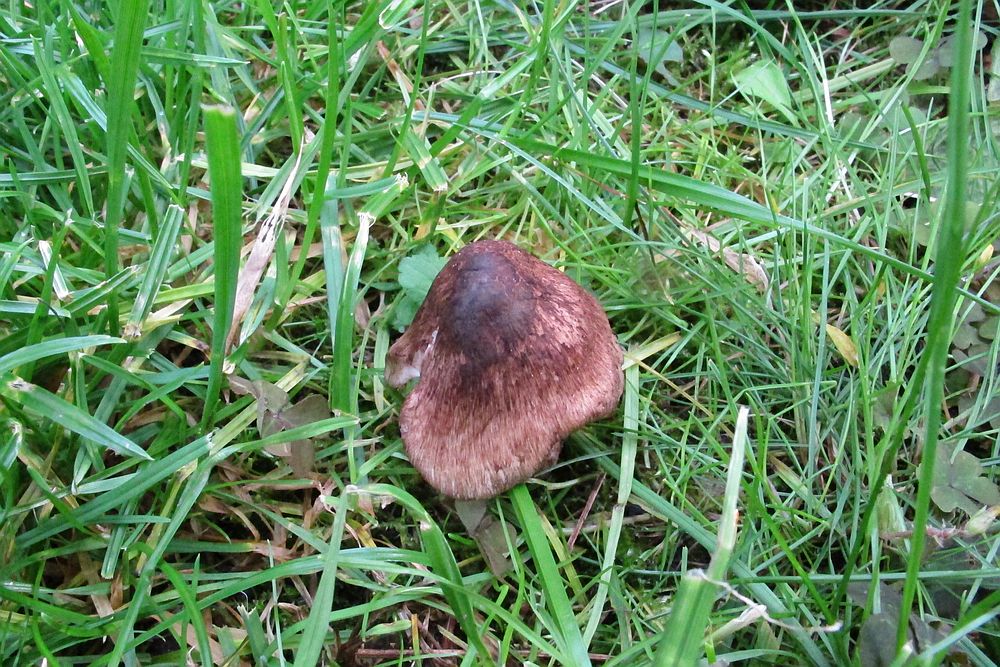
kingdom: Fungi
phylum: Basidiomycota
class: Agaricomycetes
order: Agaricales
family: Inocybaceae
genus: Inosperma
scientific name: Inosperma adaequatum
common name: vinrød trævlhat
